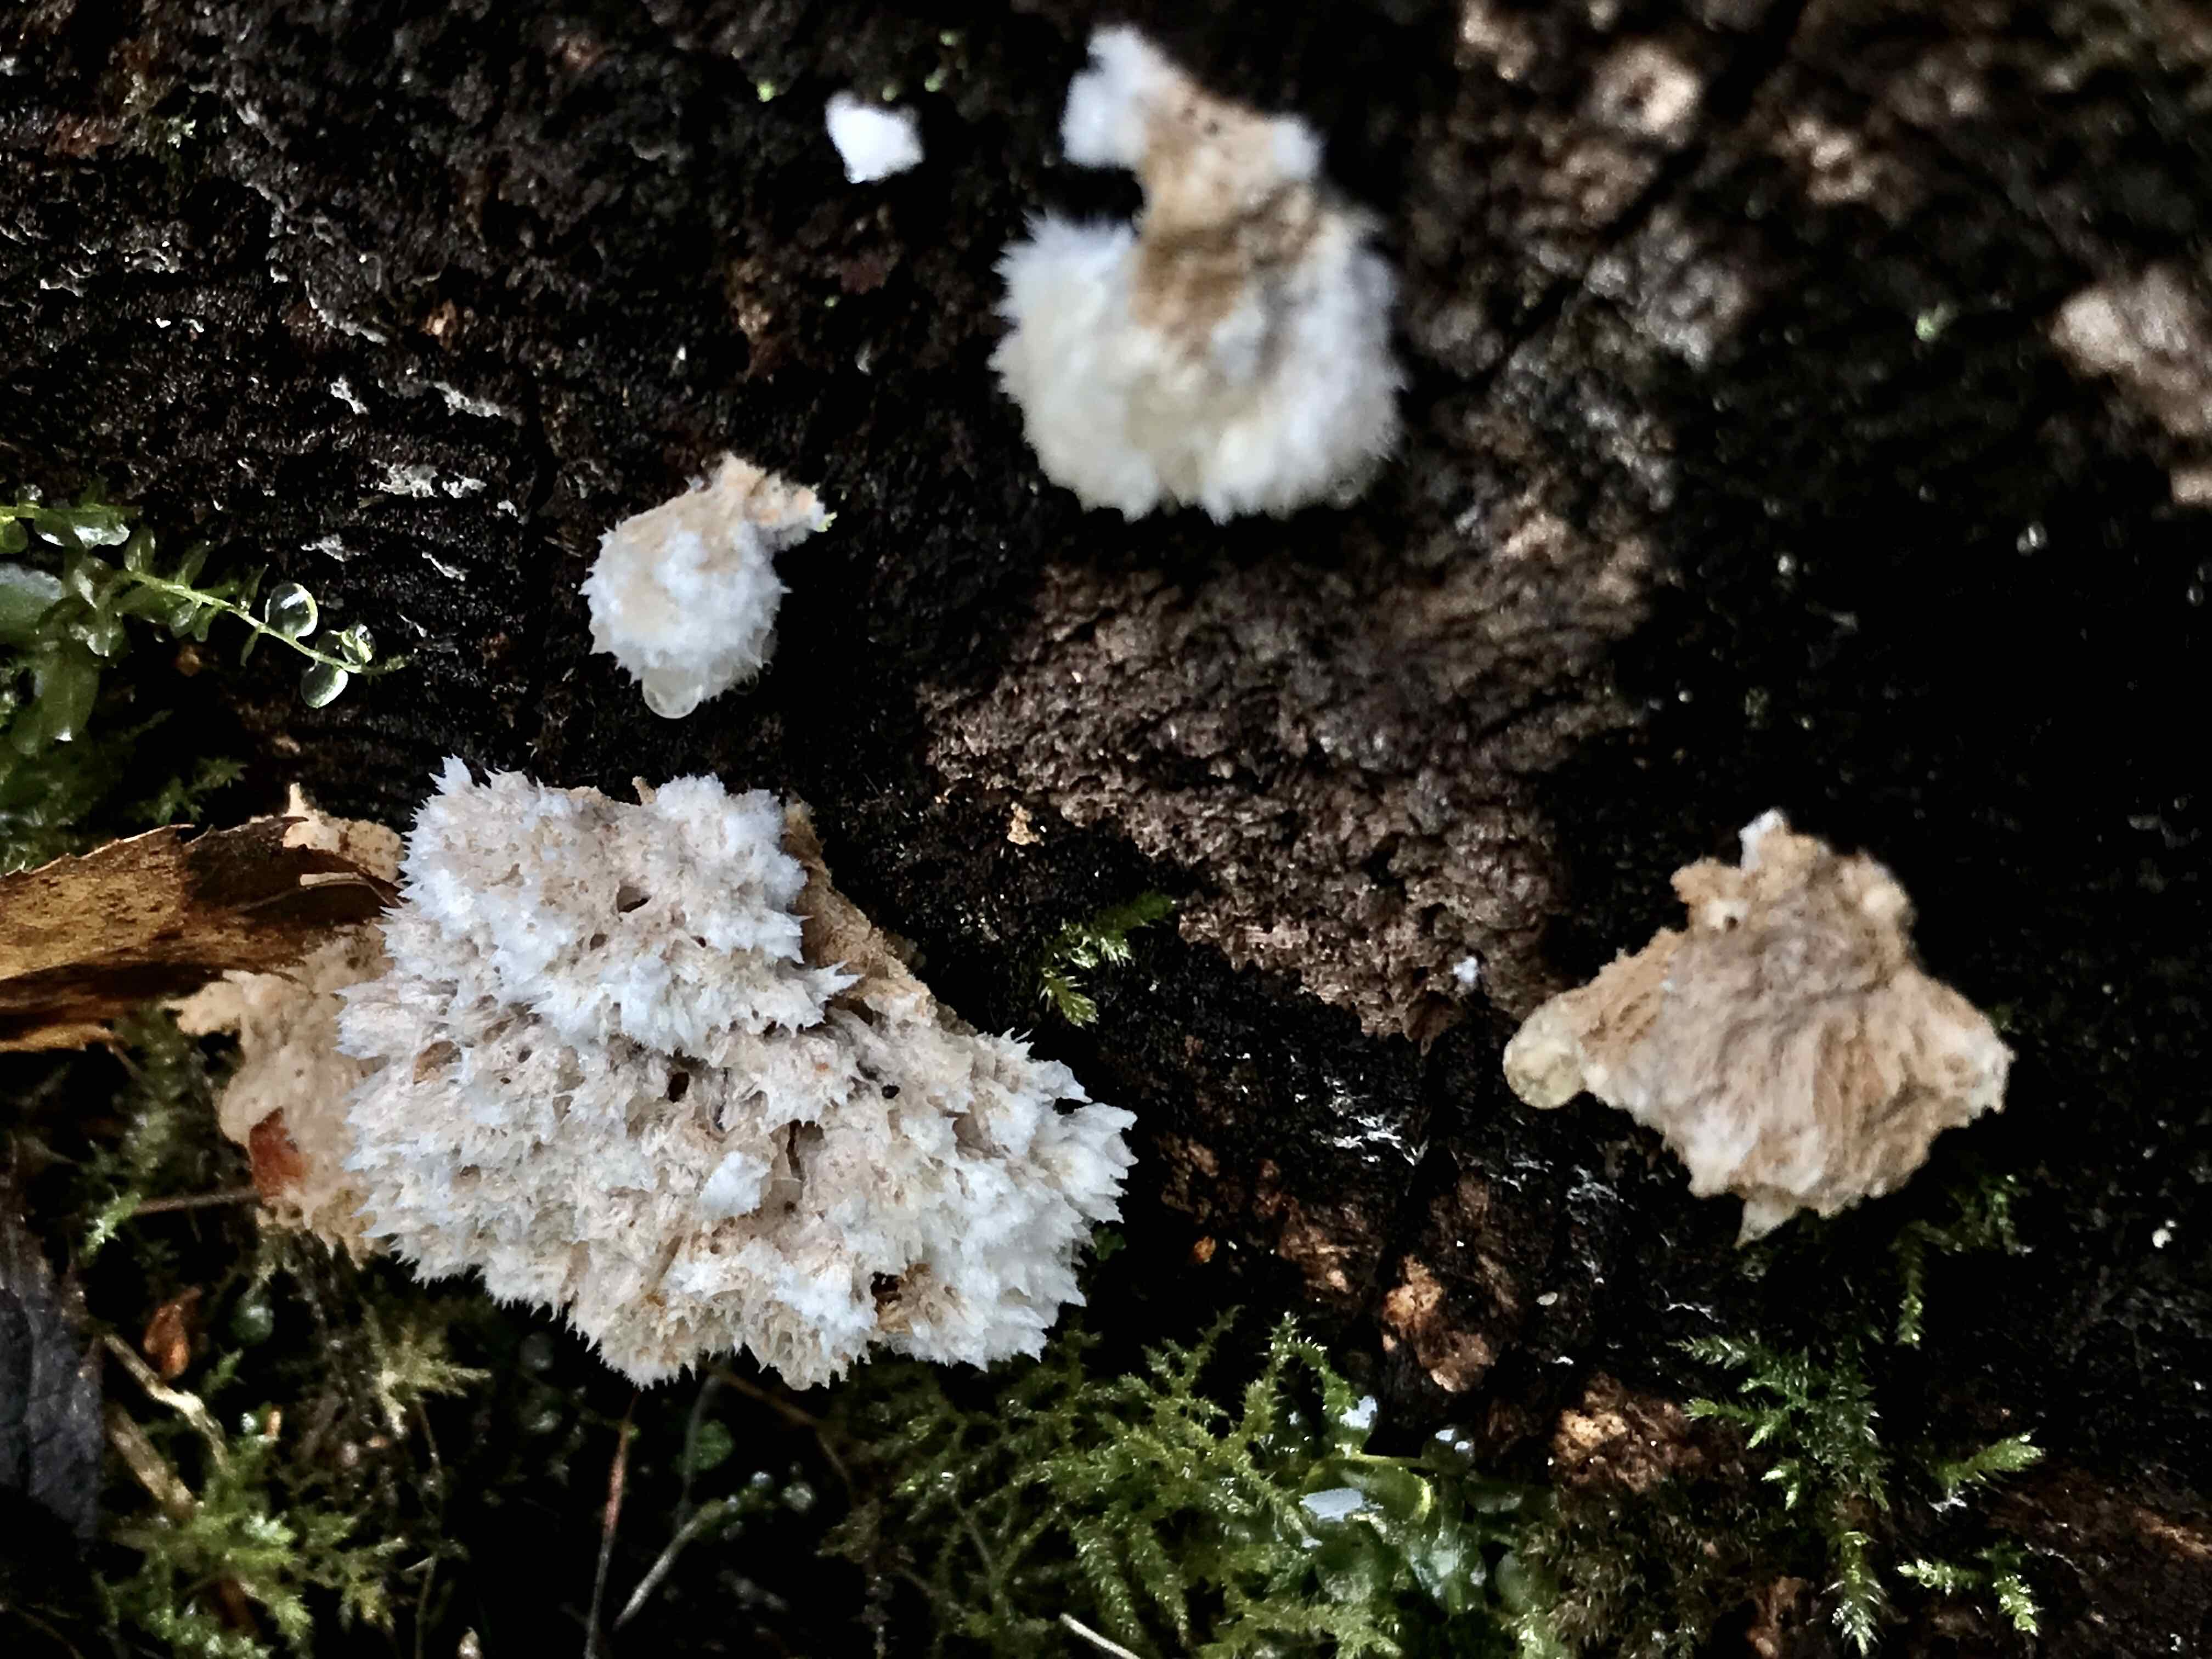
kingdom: Fungi
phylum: Basidiomycota
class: Agaricomycetes
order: Polyporales
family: Dacryobolaceae
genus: Postia
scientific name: Postia ptychogaster
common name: støvende kødporesvamp
